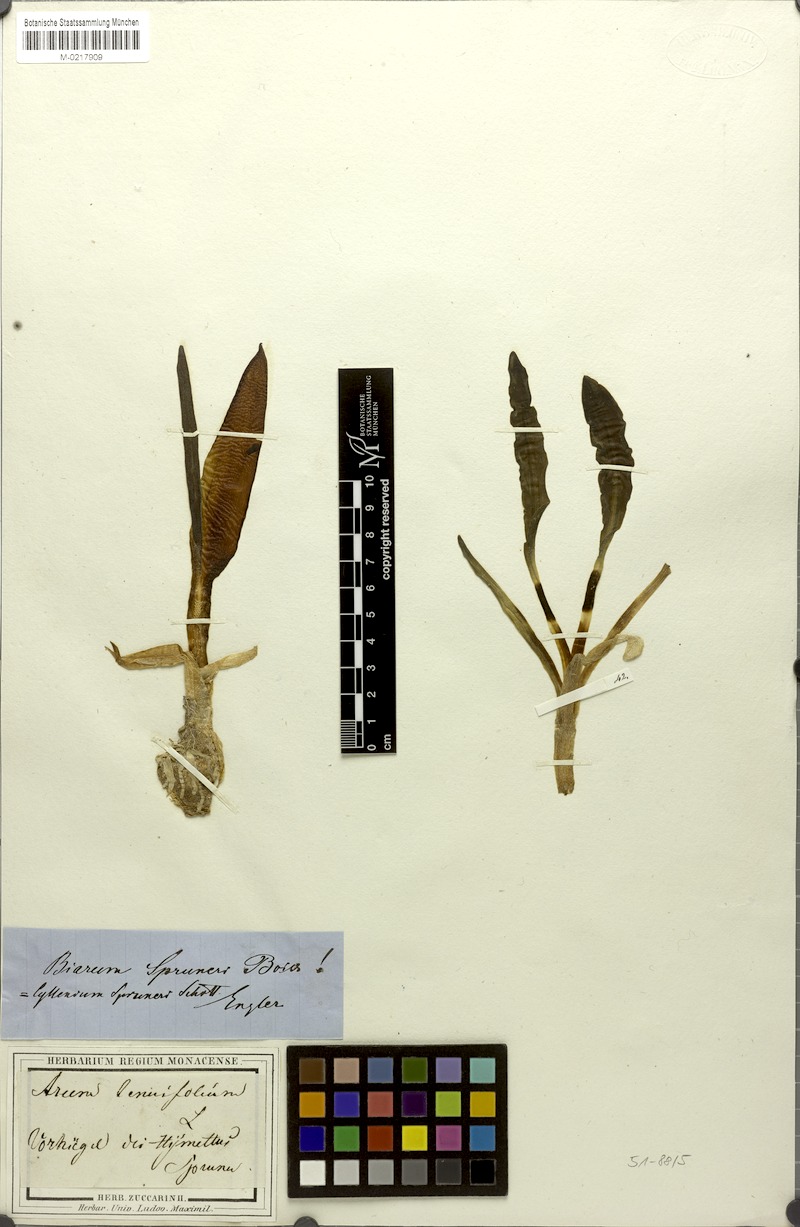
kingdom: Plantae
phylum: Tracheophyta
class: Liliopsida
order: Alismatales
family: Araceae
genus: Biarum
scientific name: Biarum rhopalospadix
